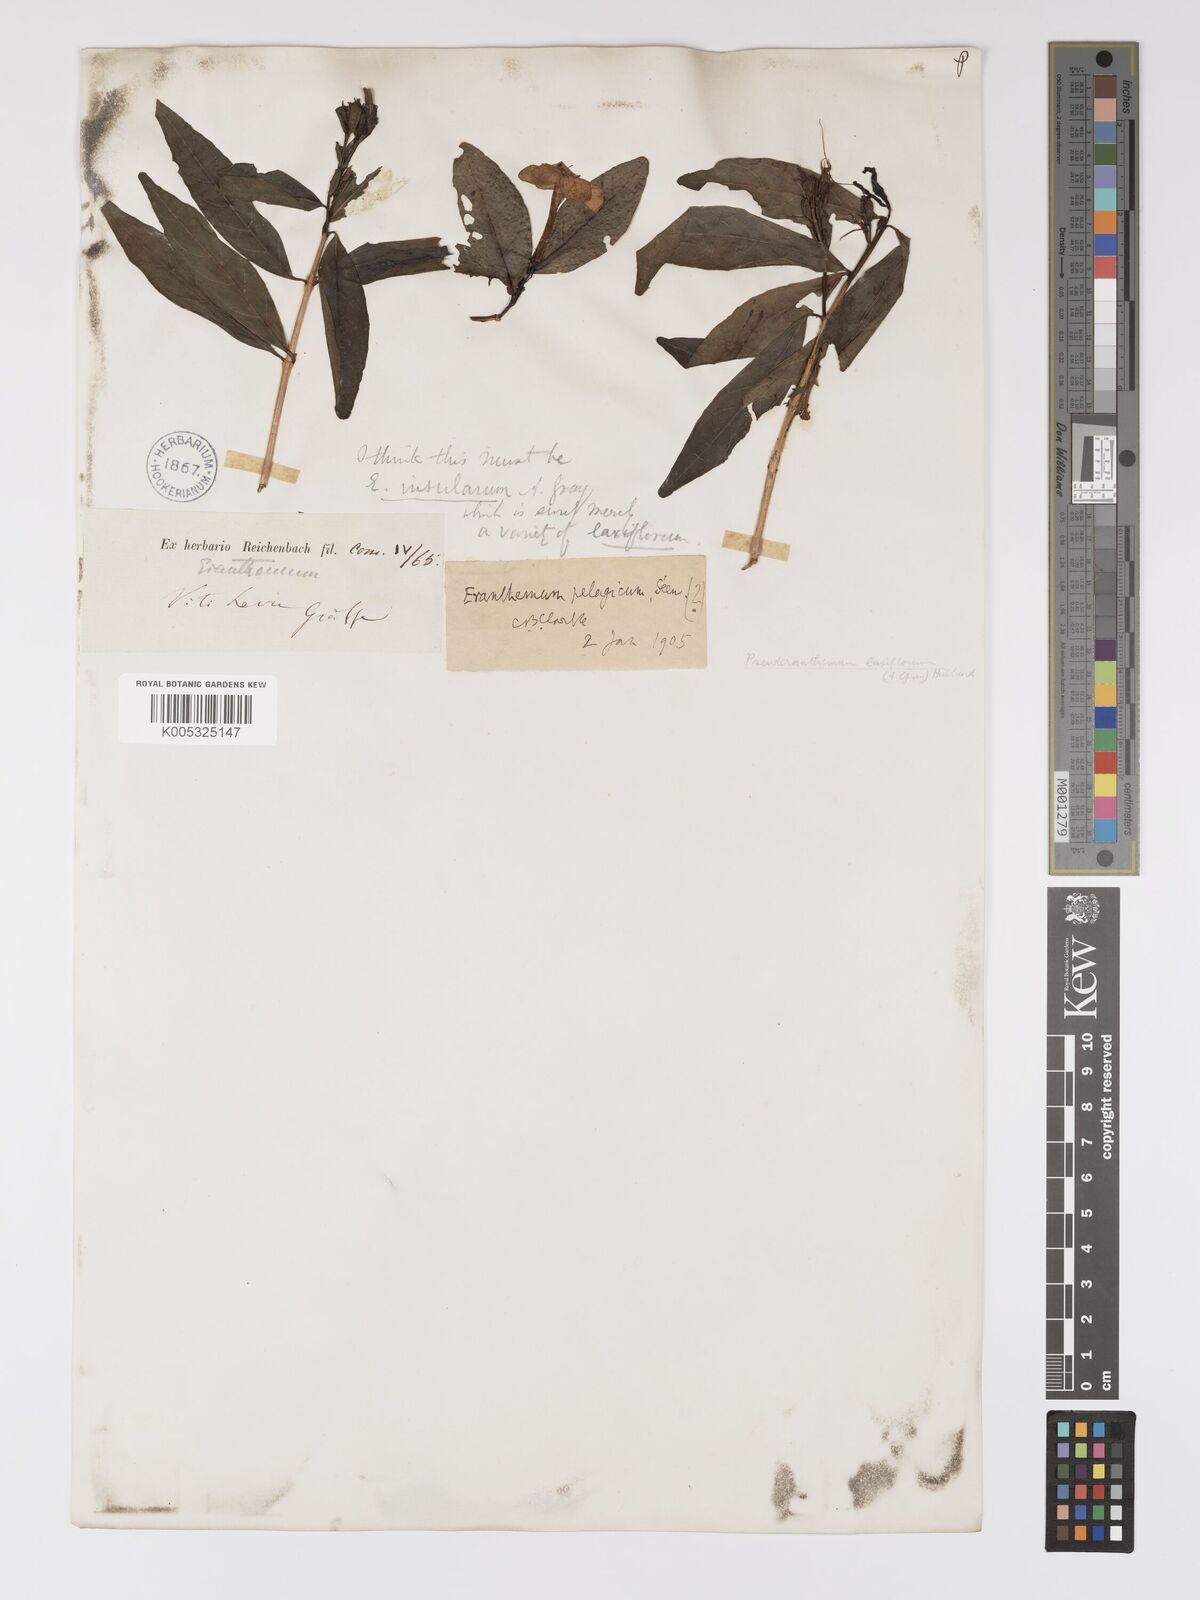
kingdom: Plantae
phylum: Tracheophyta
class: Magnoliopsida
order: Lamiales
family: Acanthaceae
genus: Pseuderanthemum
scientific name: Pseuderanthemum laxiflorum
